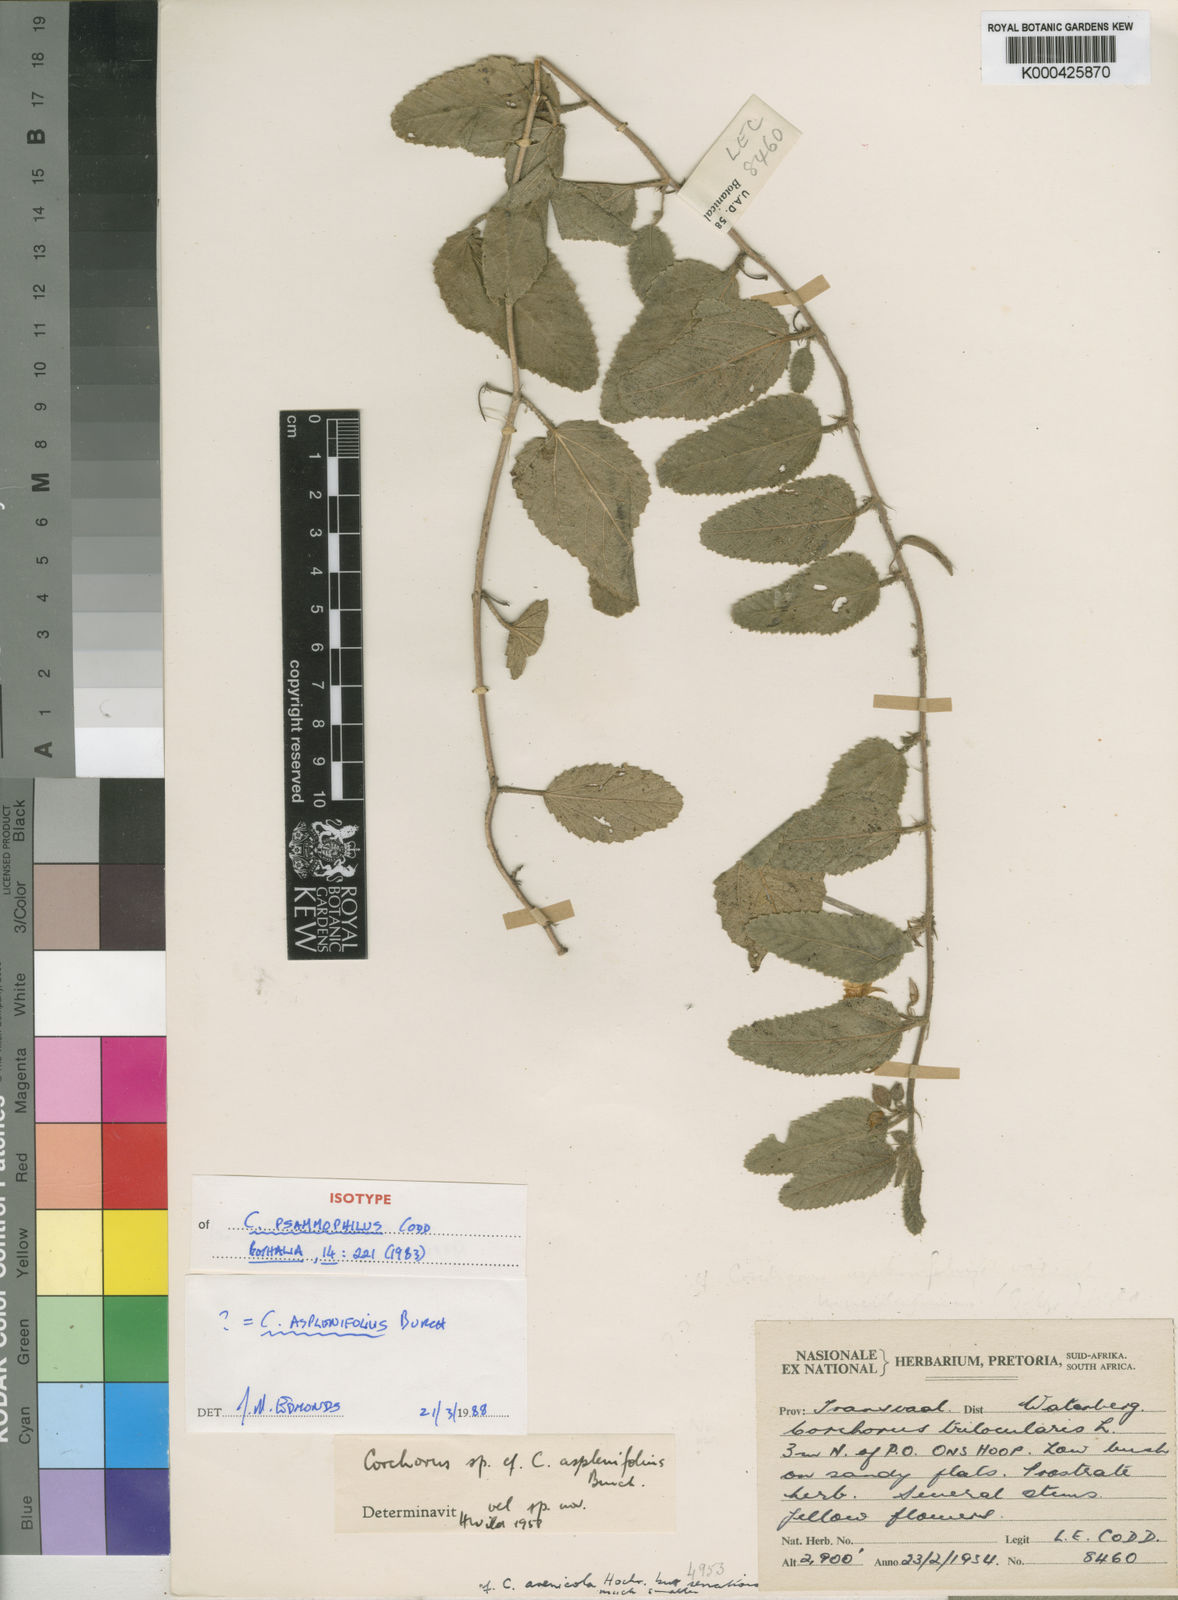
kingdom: Plantae
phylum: Tracheophyta
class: Magnoliopsida
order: Malvales
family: Malvaceae
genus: Corchorus
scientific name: Corchorus asplenifolius
